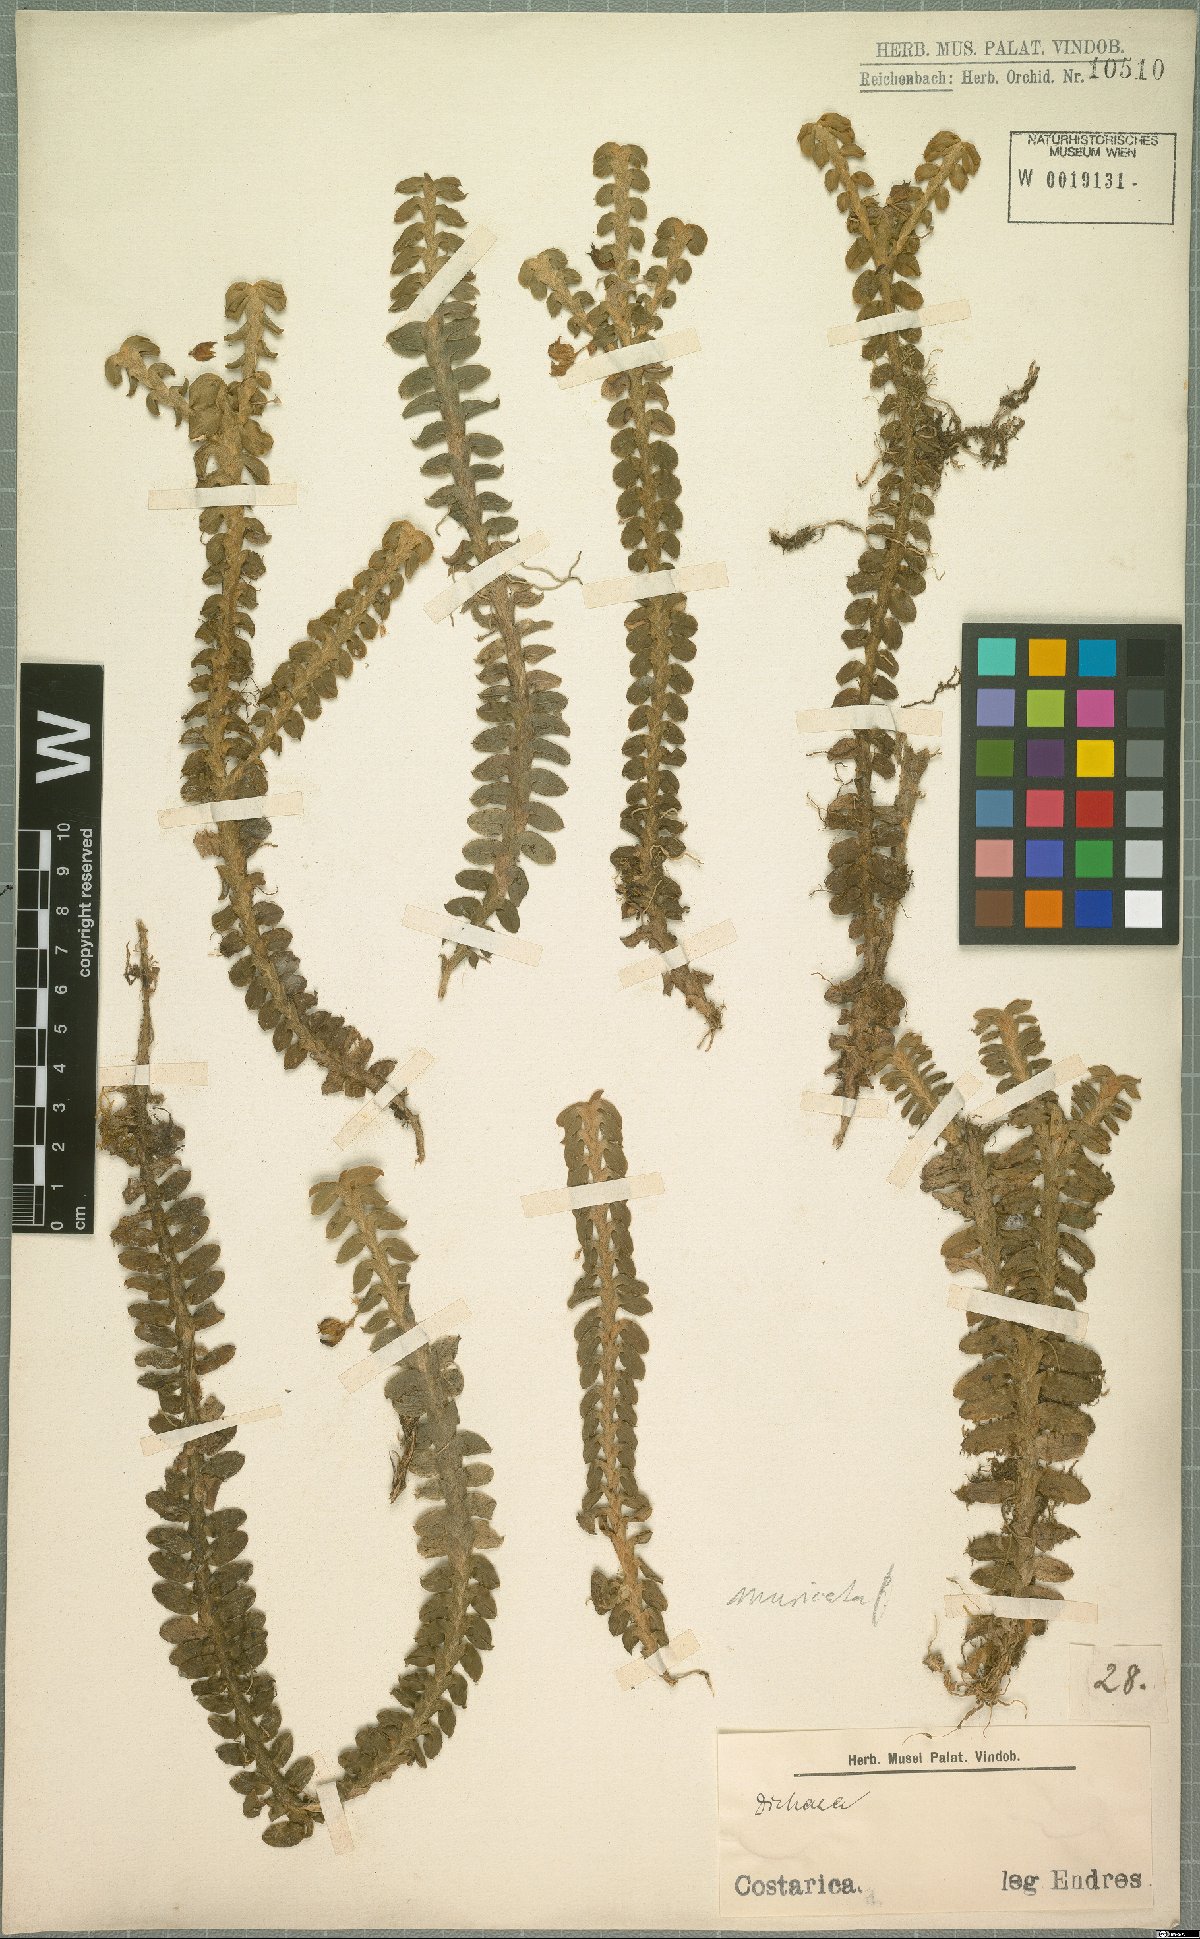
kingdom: Plantae
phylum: Tracheophyta
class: Liliopsida
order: Asparagales
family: Orchidaceae
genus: Dichaea
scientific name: Dichaea morrisii
